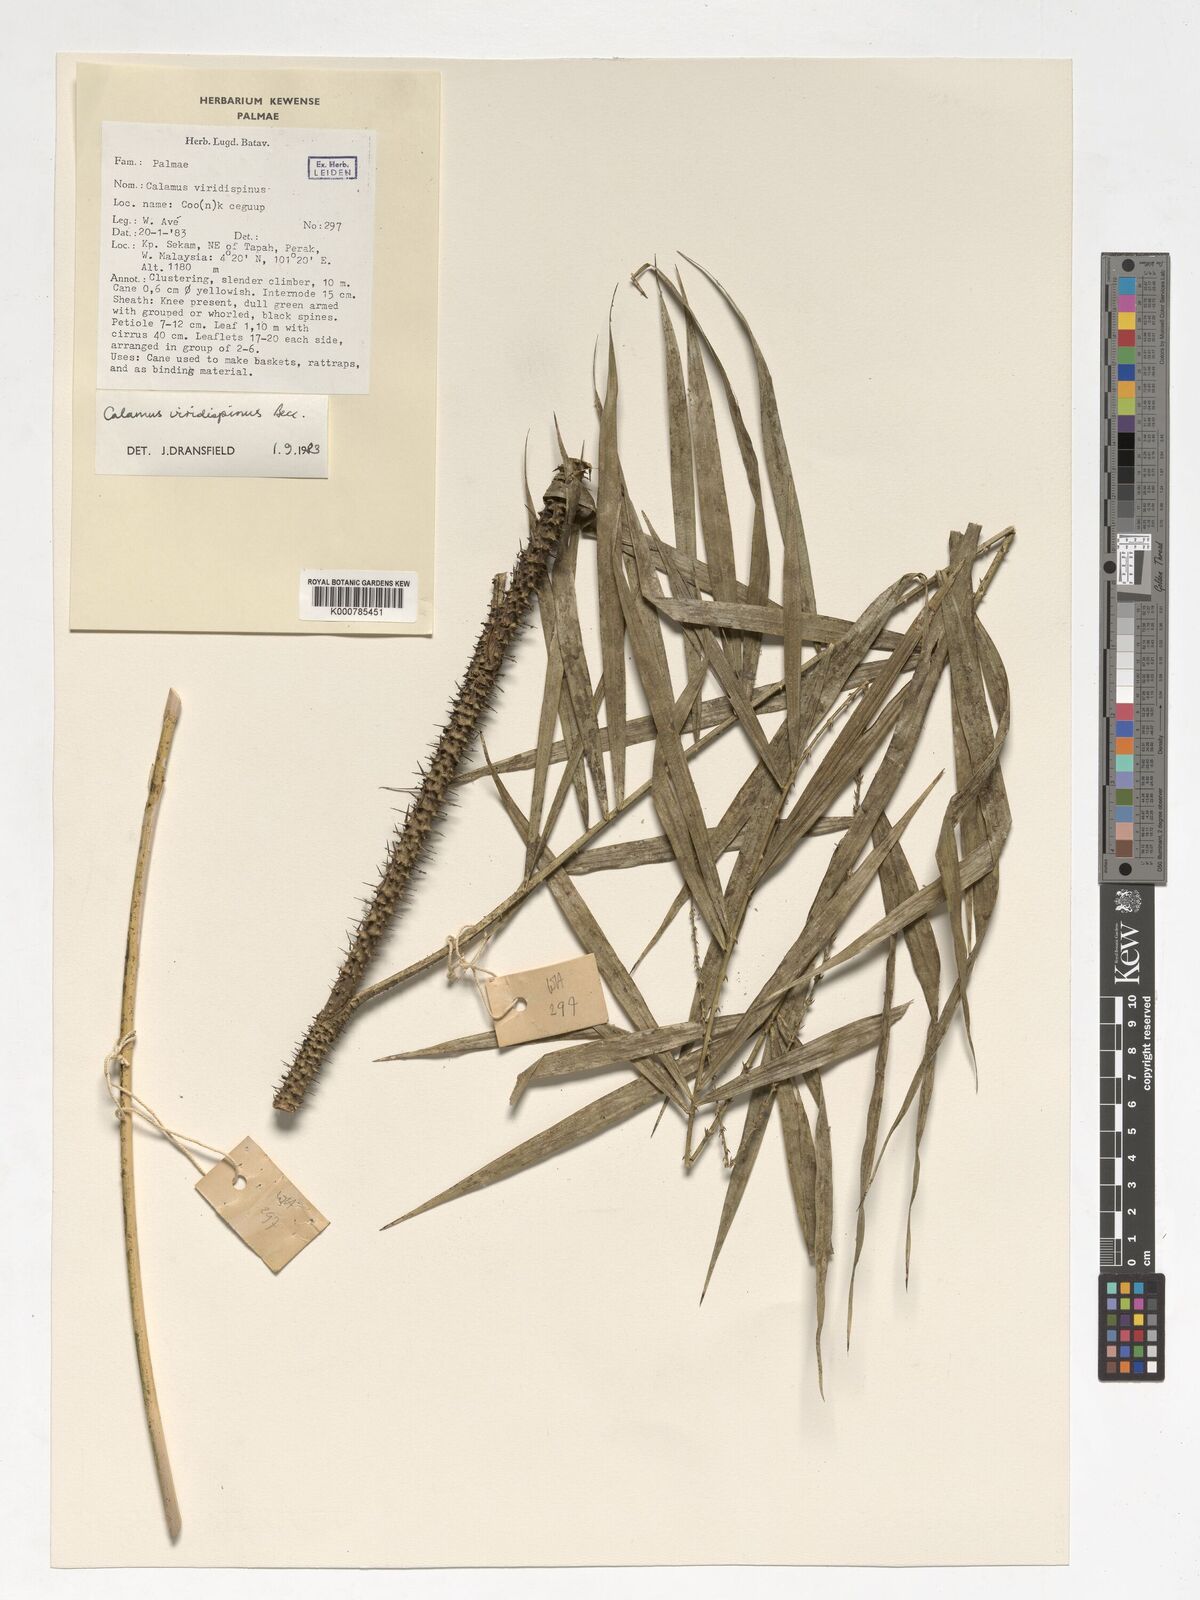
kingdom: Plantae
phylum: Tracheophyta
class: Liliopsida
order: Arecales
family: Arecaceae
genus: Calamus
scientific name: Calamus helferianus
